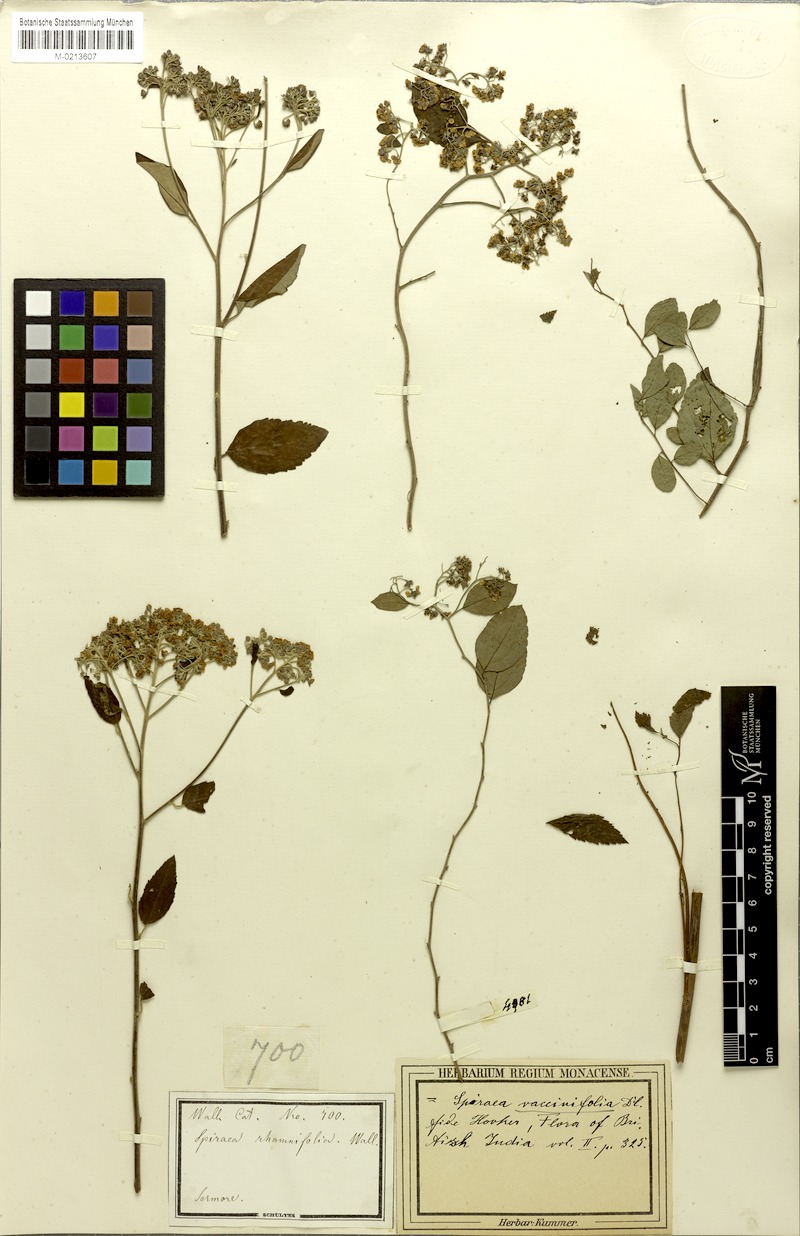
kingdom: Plantae
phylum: Tracheophyta
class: Magnoliopsida
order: Rosales
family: Rosaceae
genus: Spiraea
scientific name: Spiraea vacciniifolia
